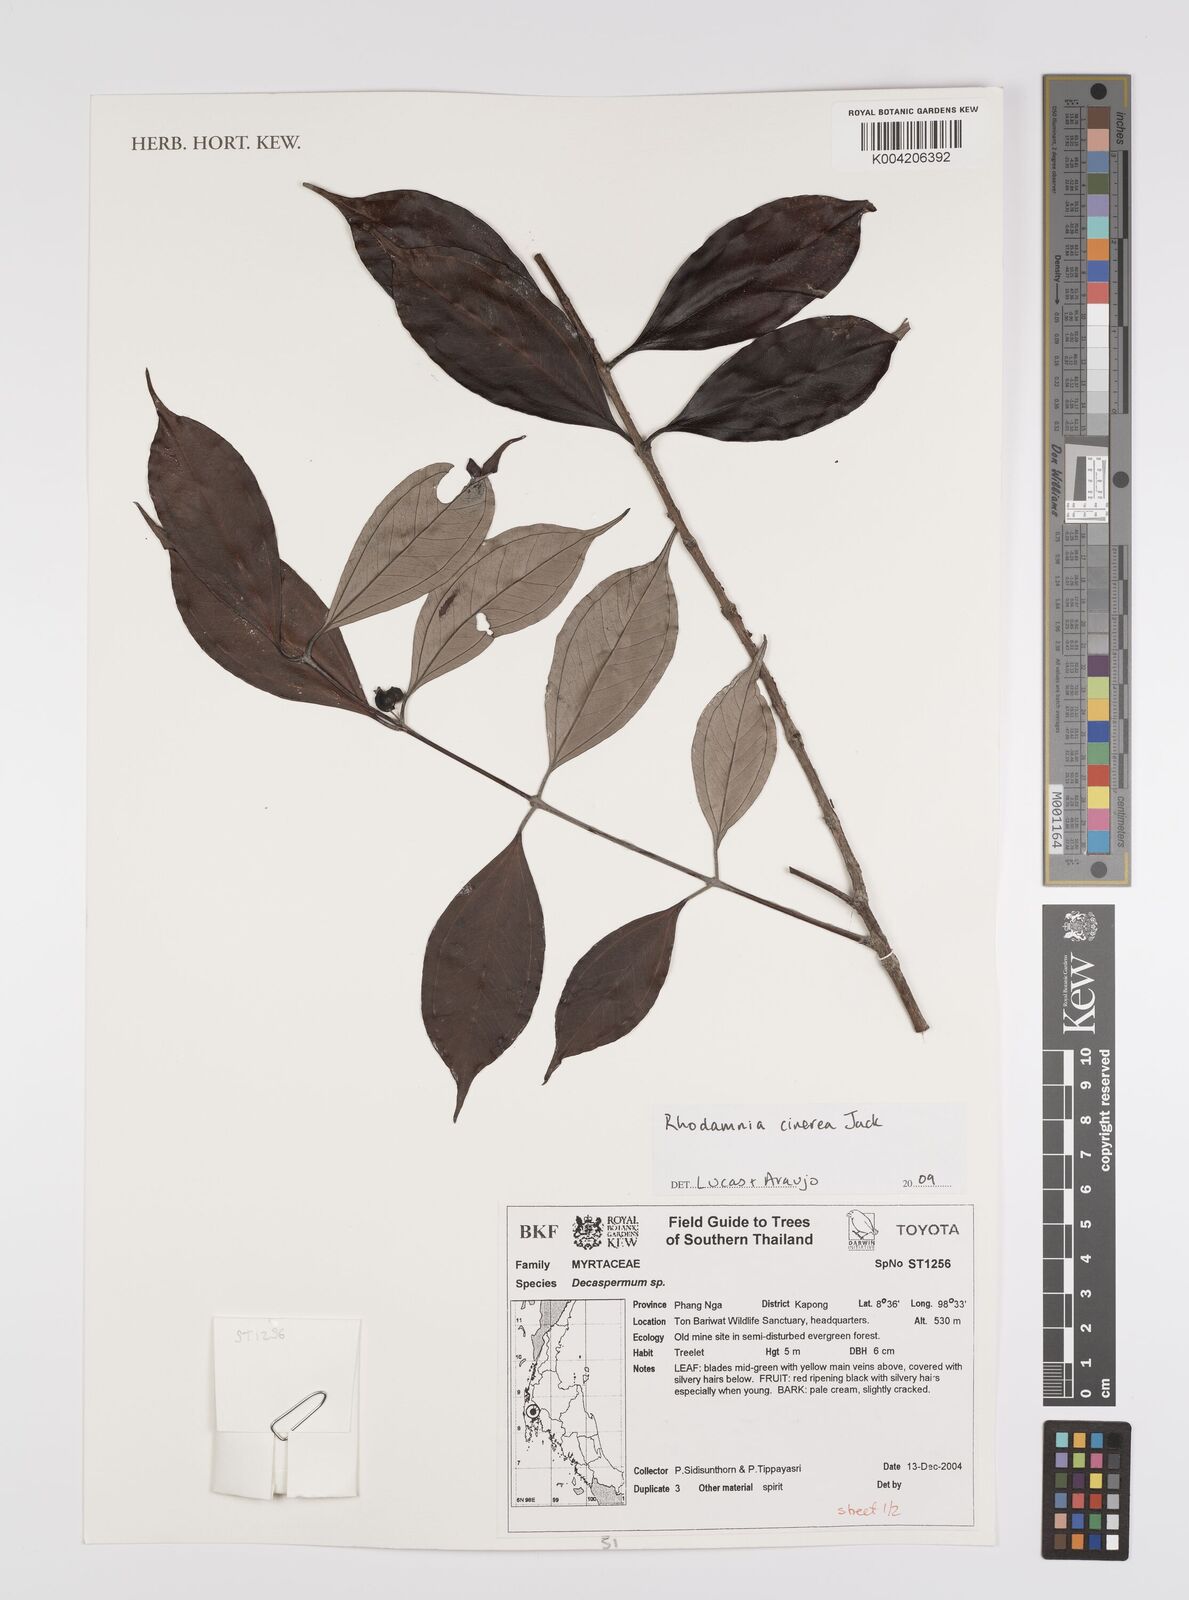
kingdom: Plantae
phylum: Tracheophyta
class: Magnoliopsida
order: Myrtales
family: Myrtaceae
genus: Rhodamnia
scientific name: Rhodamnia cinerea
